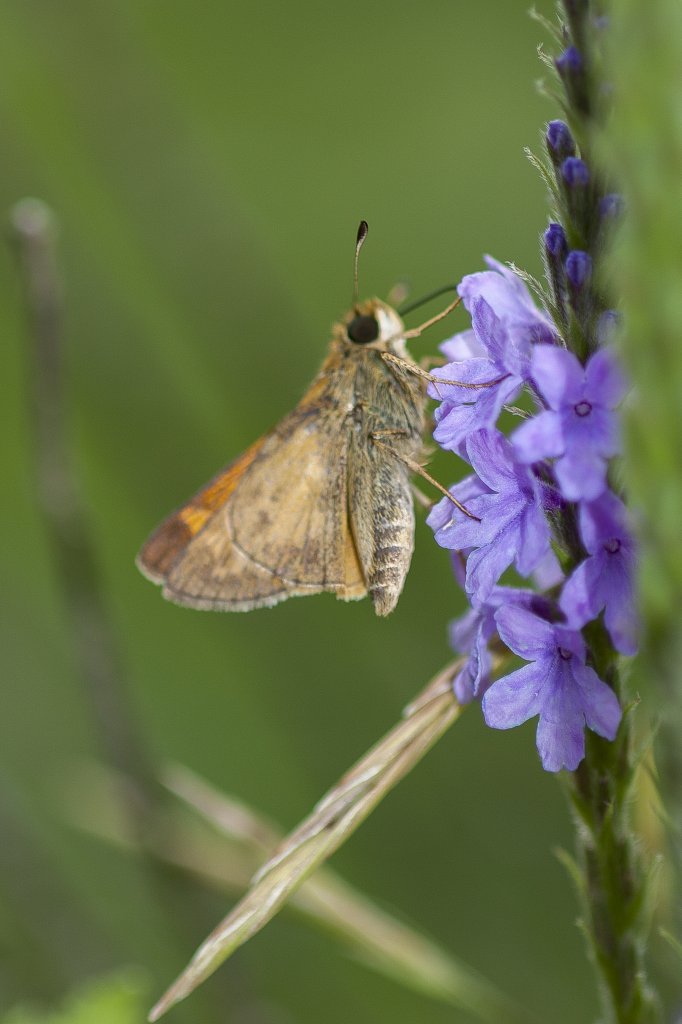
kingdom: Animalia
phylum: Arthropoda
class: Insecta
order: Lepidoptera
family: Hesperiidae
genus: Atalopedes
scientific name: Atalopedes campestris
